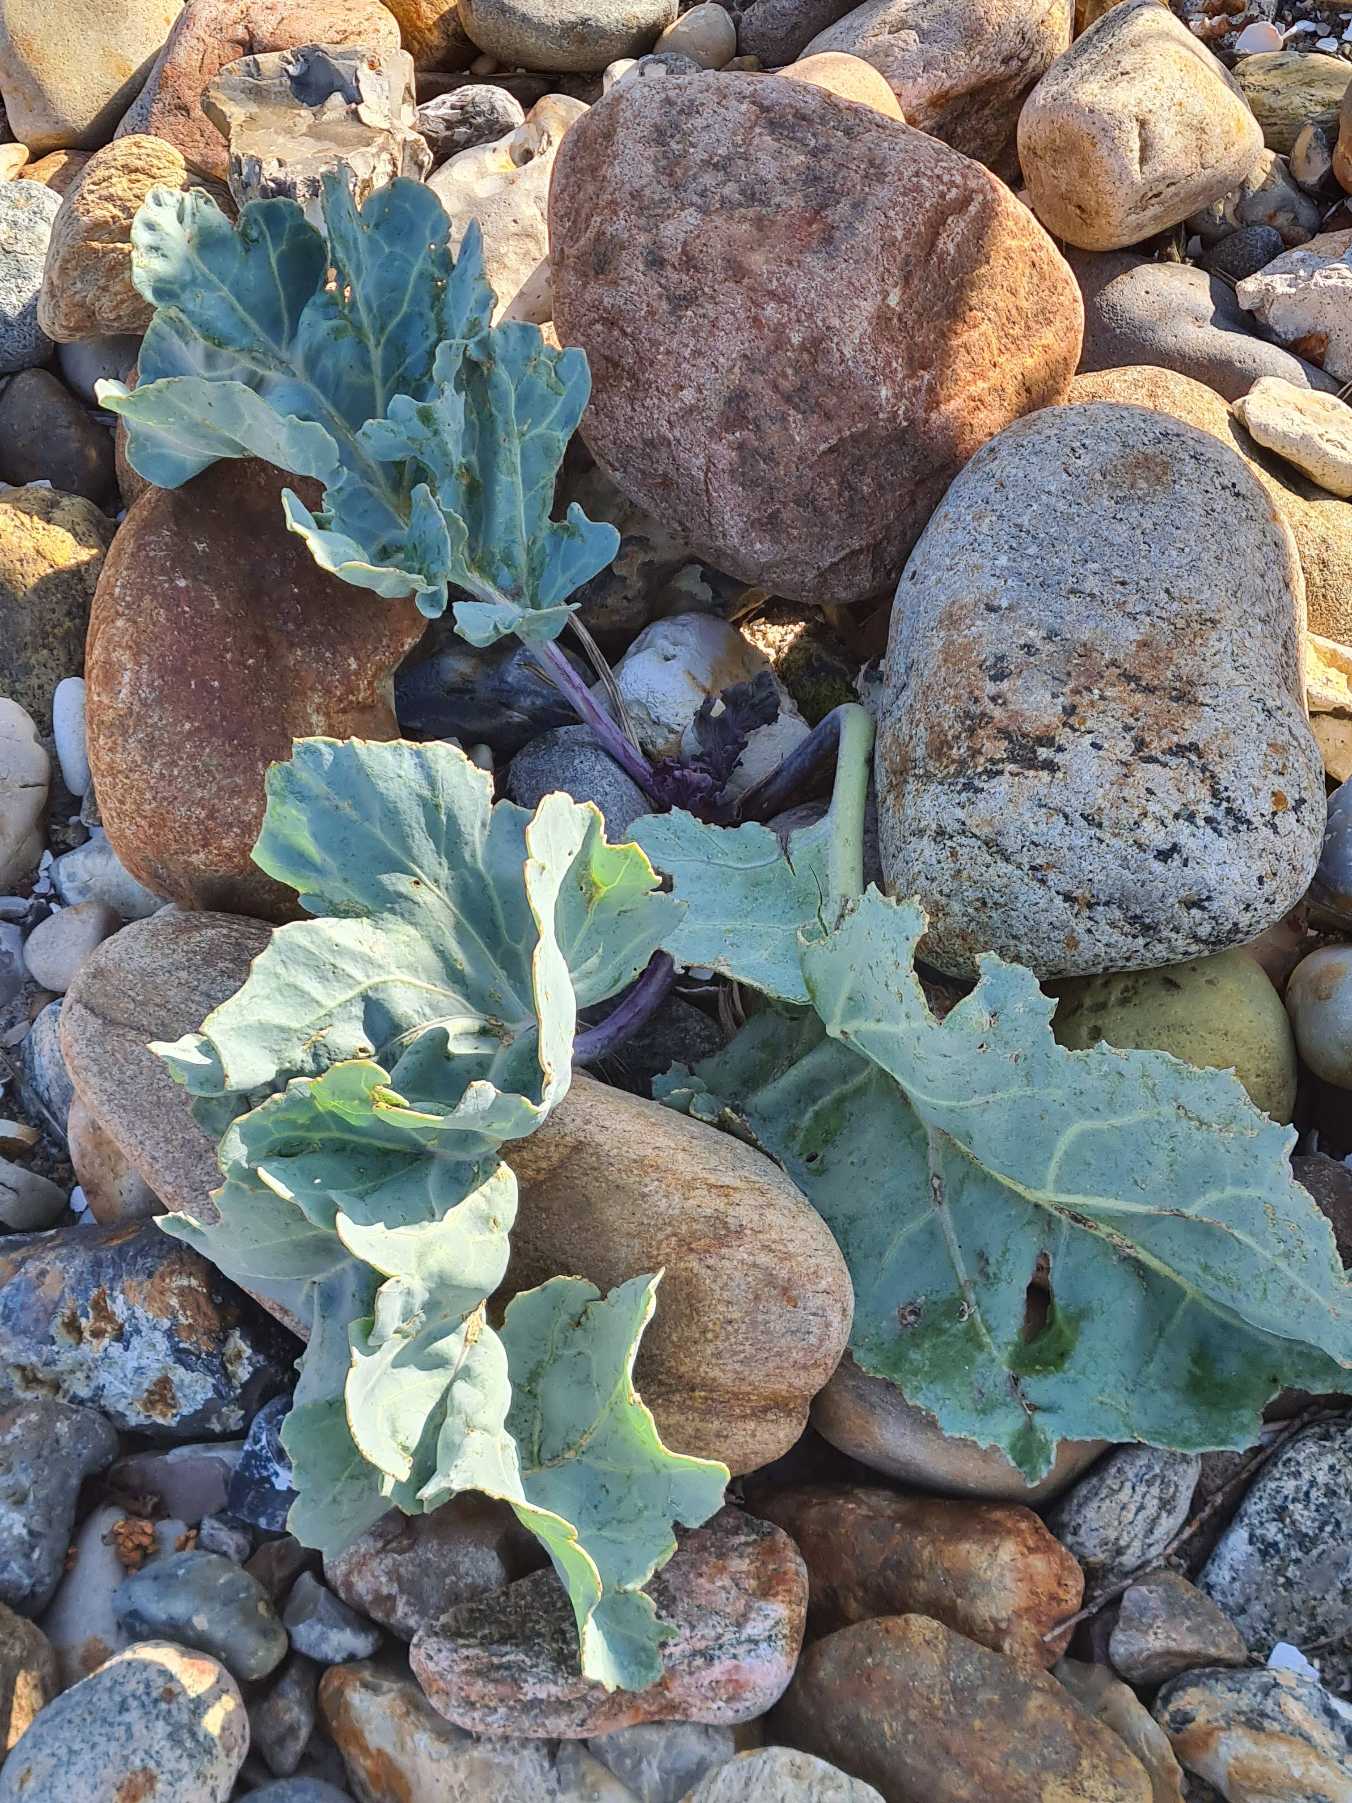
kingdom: Plantae
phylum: Tracheophyta
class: Magnoliopsida
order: Brassicales
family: Brassicaceae
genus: Crambe
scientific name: Crambe maritima
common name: Strandkål
